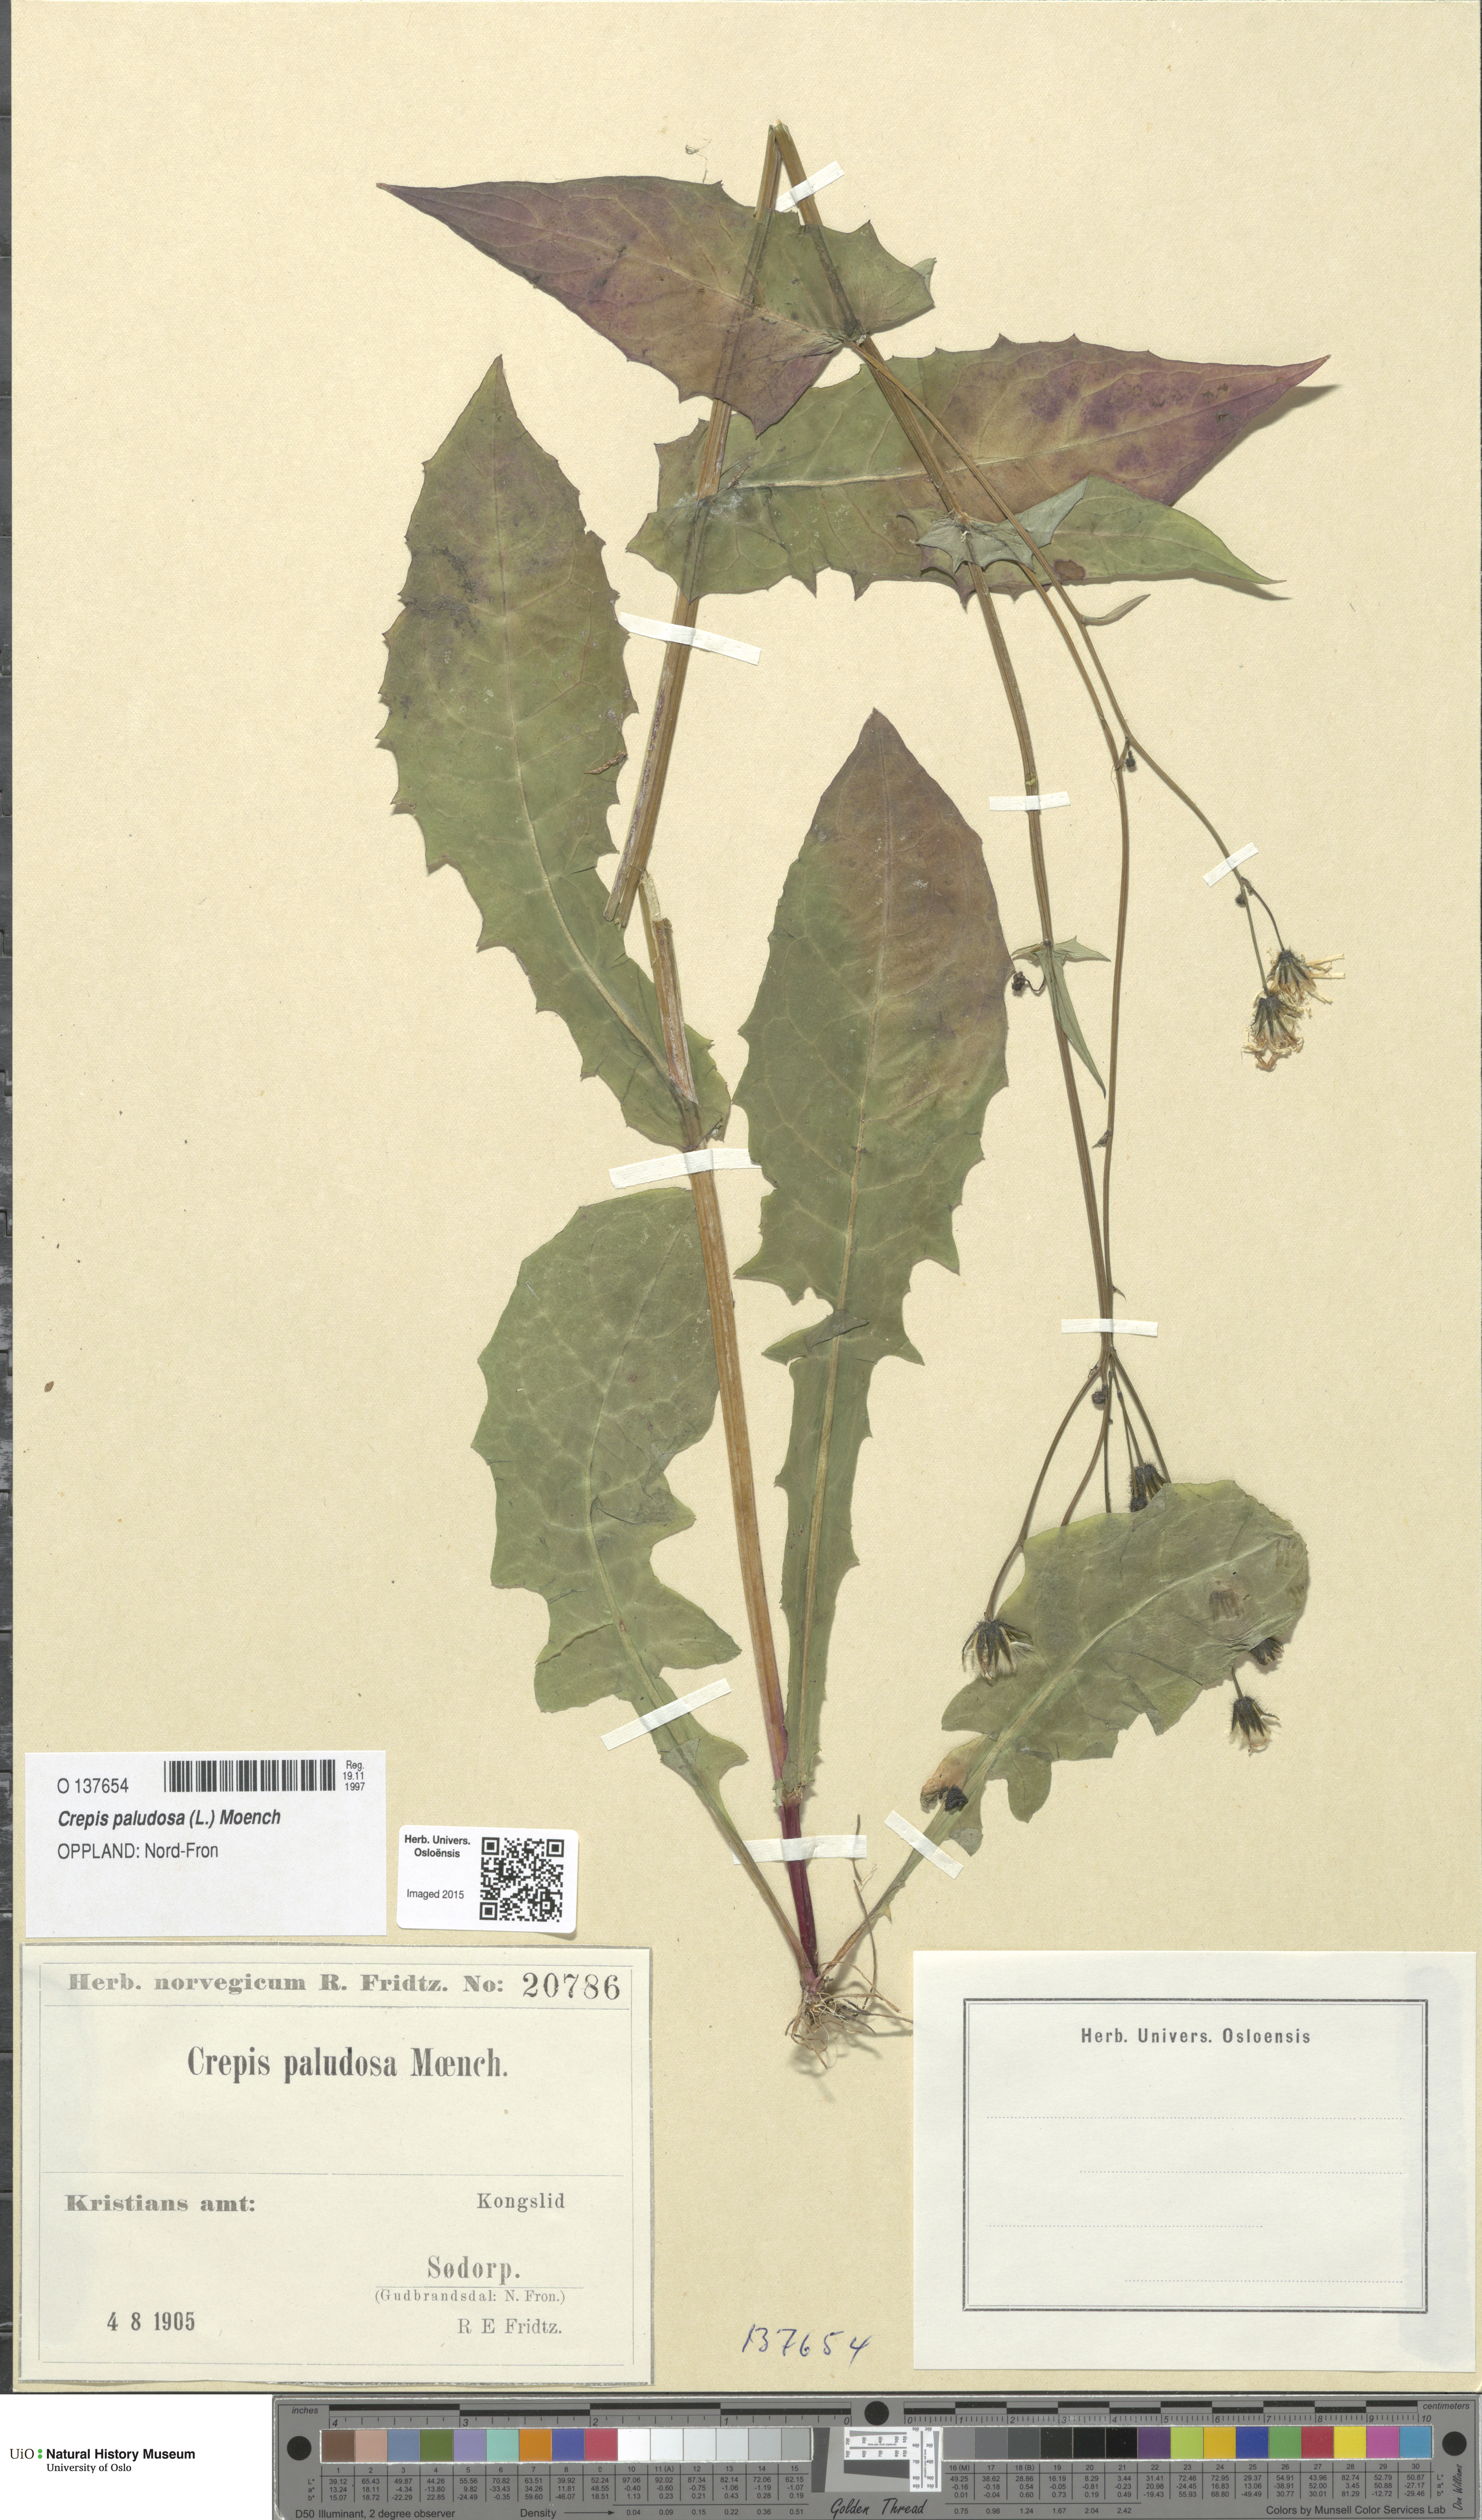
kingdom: Plantae
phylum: Tracheophyta
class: Magnoliopsida
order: Asterales
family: Asteraceae
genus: Crepis
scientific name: Crepis paludosa
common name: Marsh hawk's-beard
